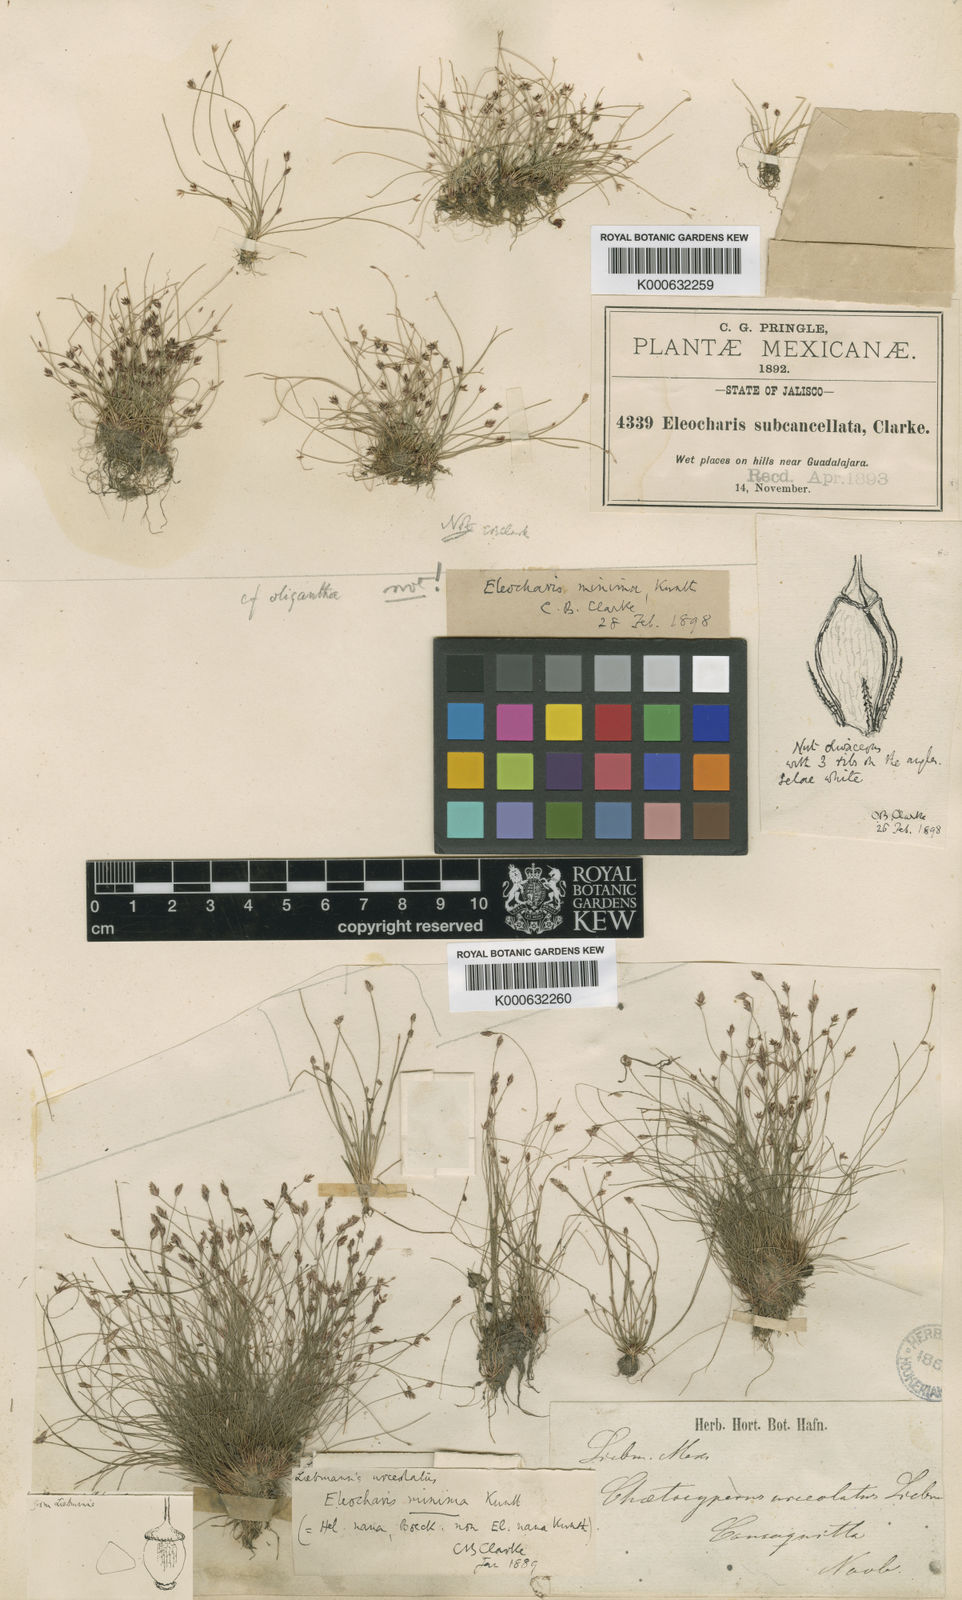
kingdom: Plantae
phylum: Tracheophyta
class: Liliopsida
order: Poales
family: Cyperaceae
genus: Eleocharis
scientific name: Eleocharis minima
